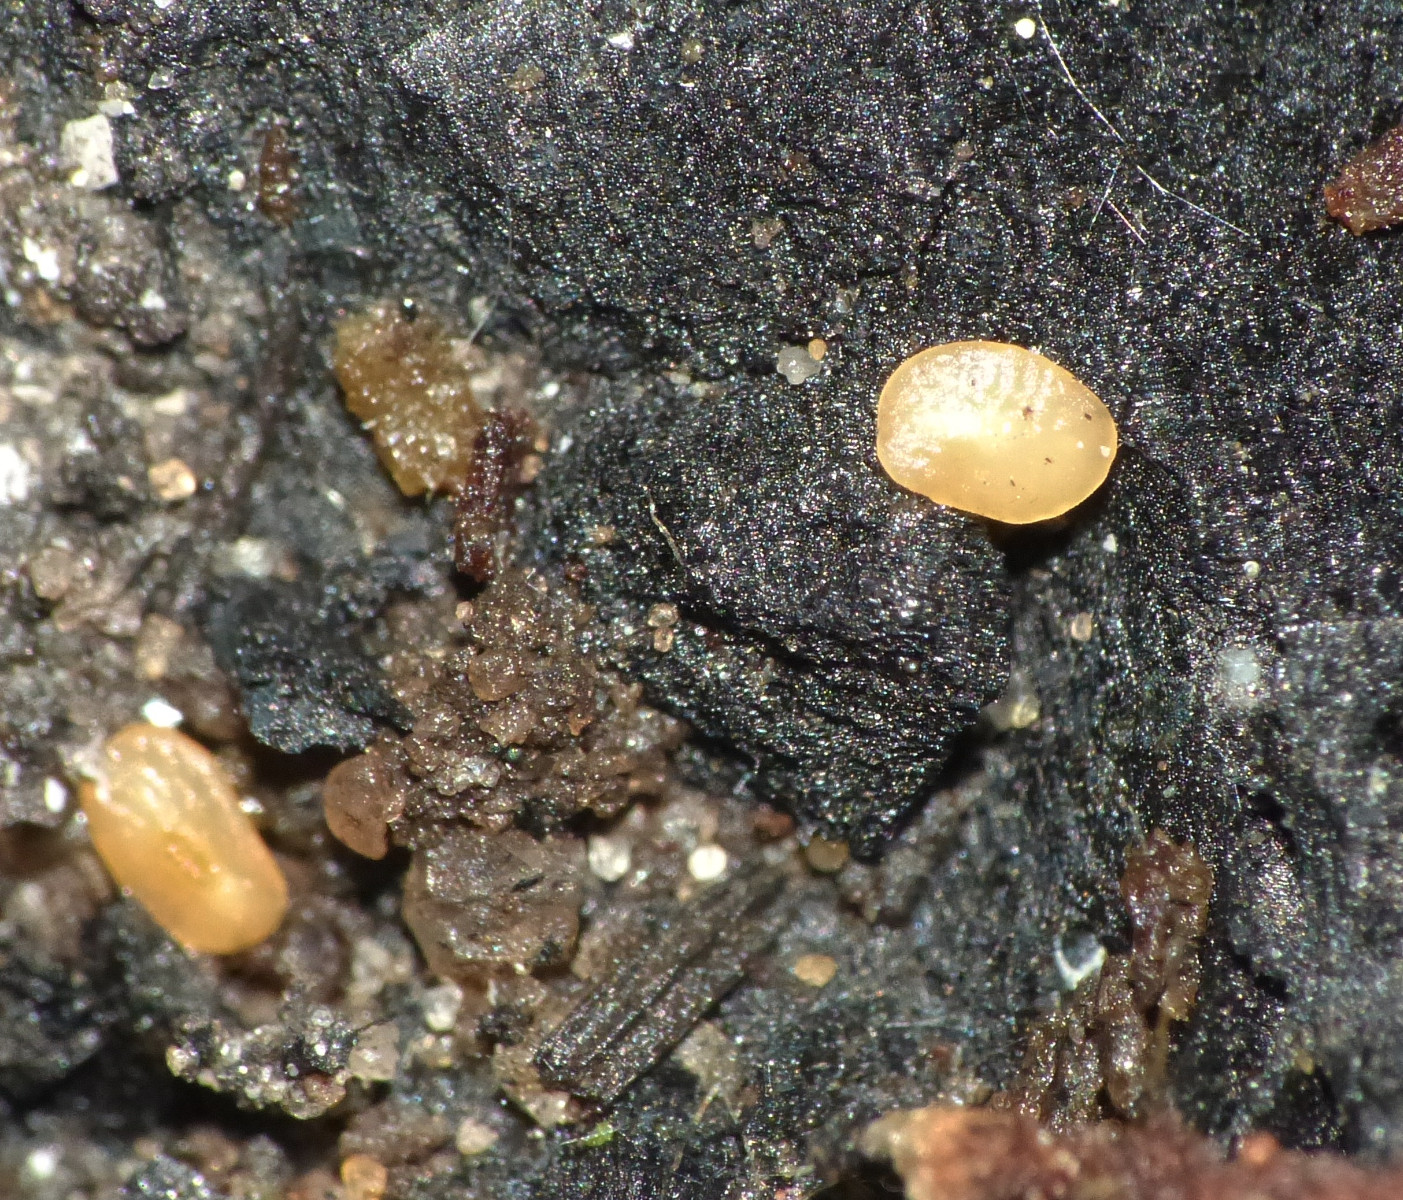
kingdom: Fungi
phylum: Basidiomycota
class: Dacrymycetes
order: Dacrymycetales
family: Dacrymycetaceae
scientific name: Dacrymycetaceae
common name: tåresvampfamilien
